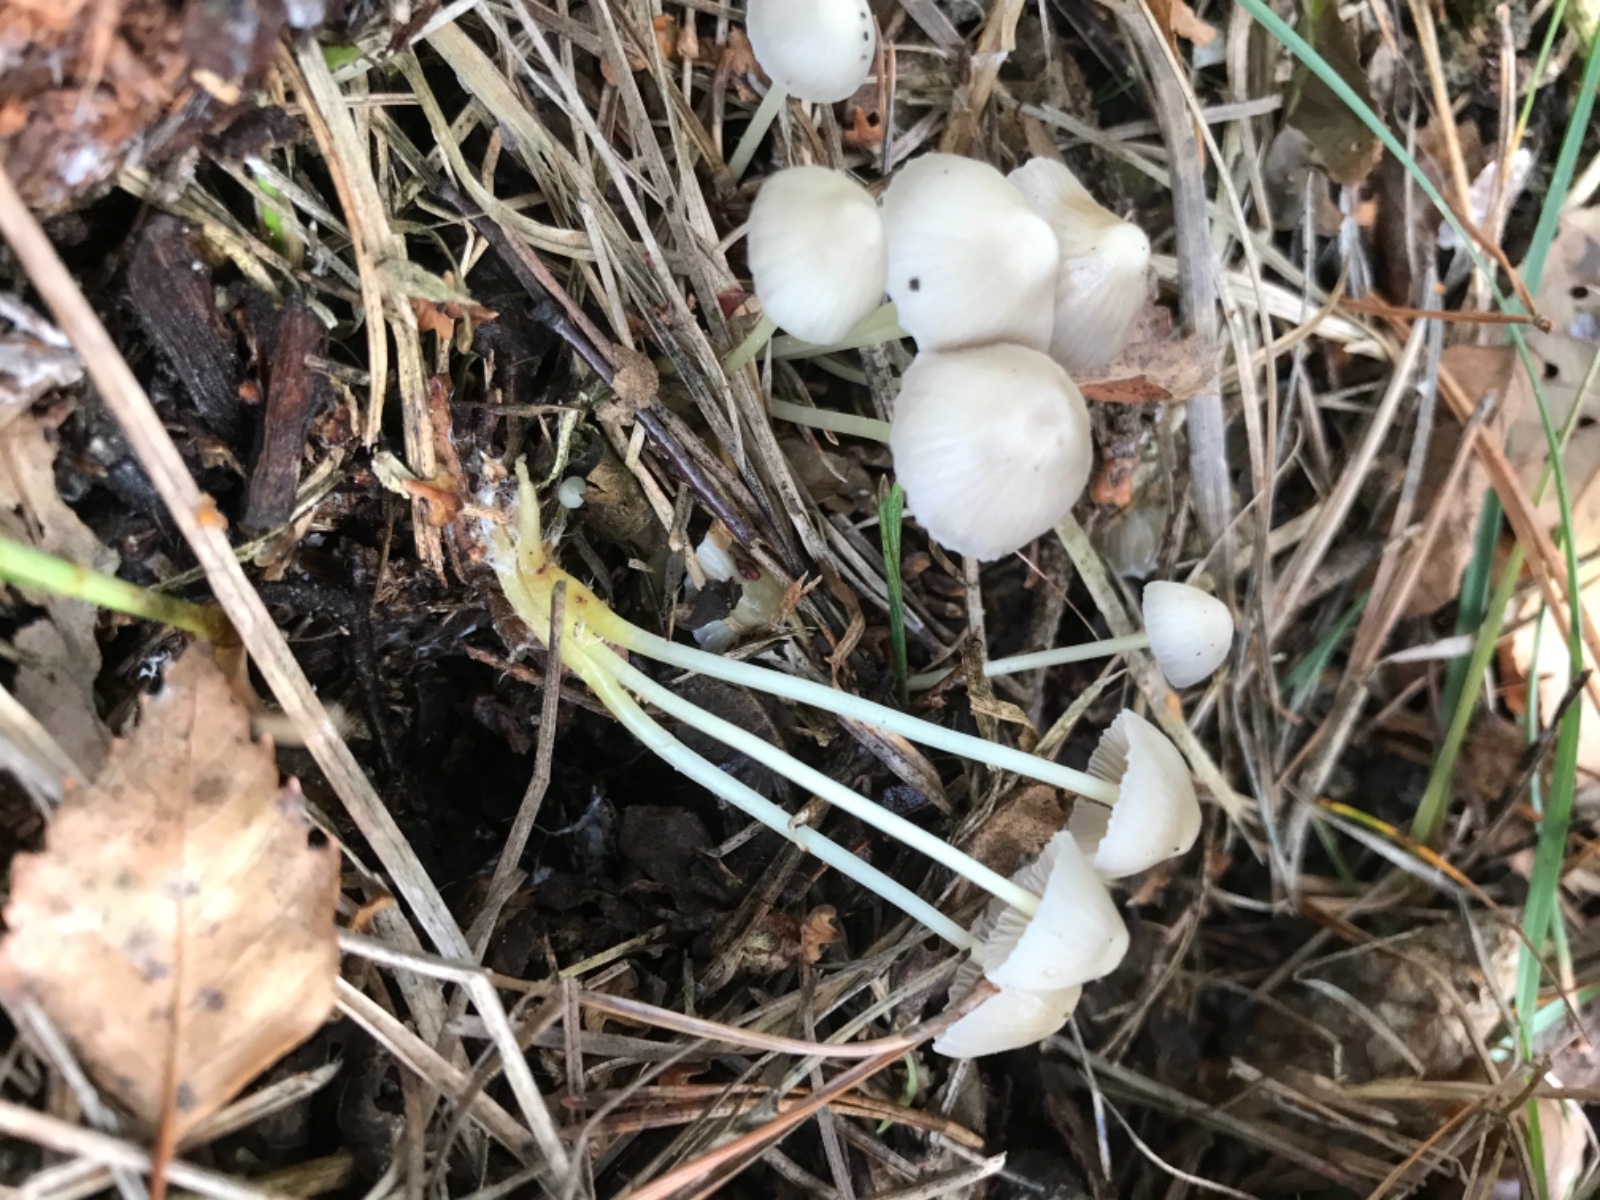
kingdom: Fungi
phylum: Basidiomycota
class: Agaricomycetes
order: Agaricales
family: Mycenaceae
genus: Mycena
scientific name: Mycena epipterygia
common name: gulstokket huesvamp
